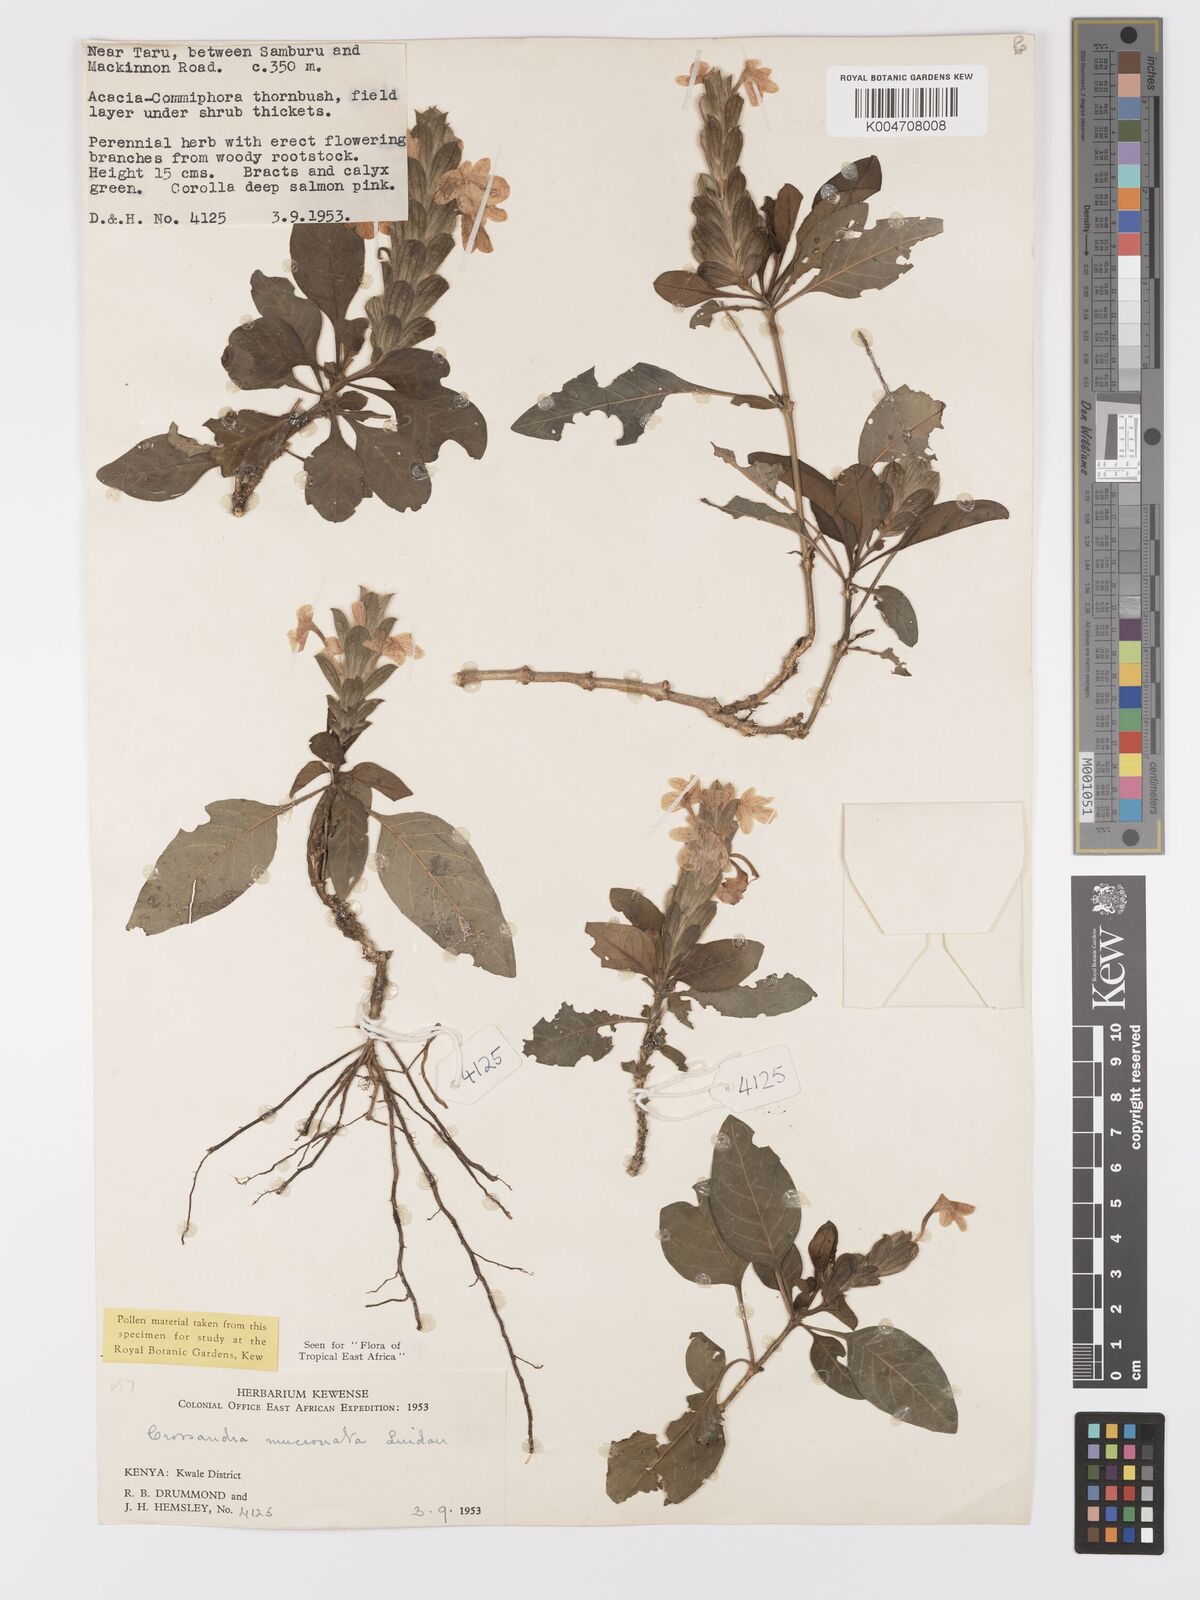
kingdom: Plantae
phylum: Tracheophyta
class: Magnoliopsida
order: Lamiales
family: Acanthaceae
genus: Crossandra
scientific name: Crossandra mucronata
